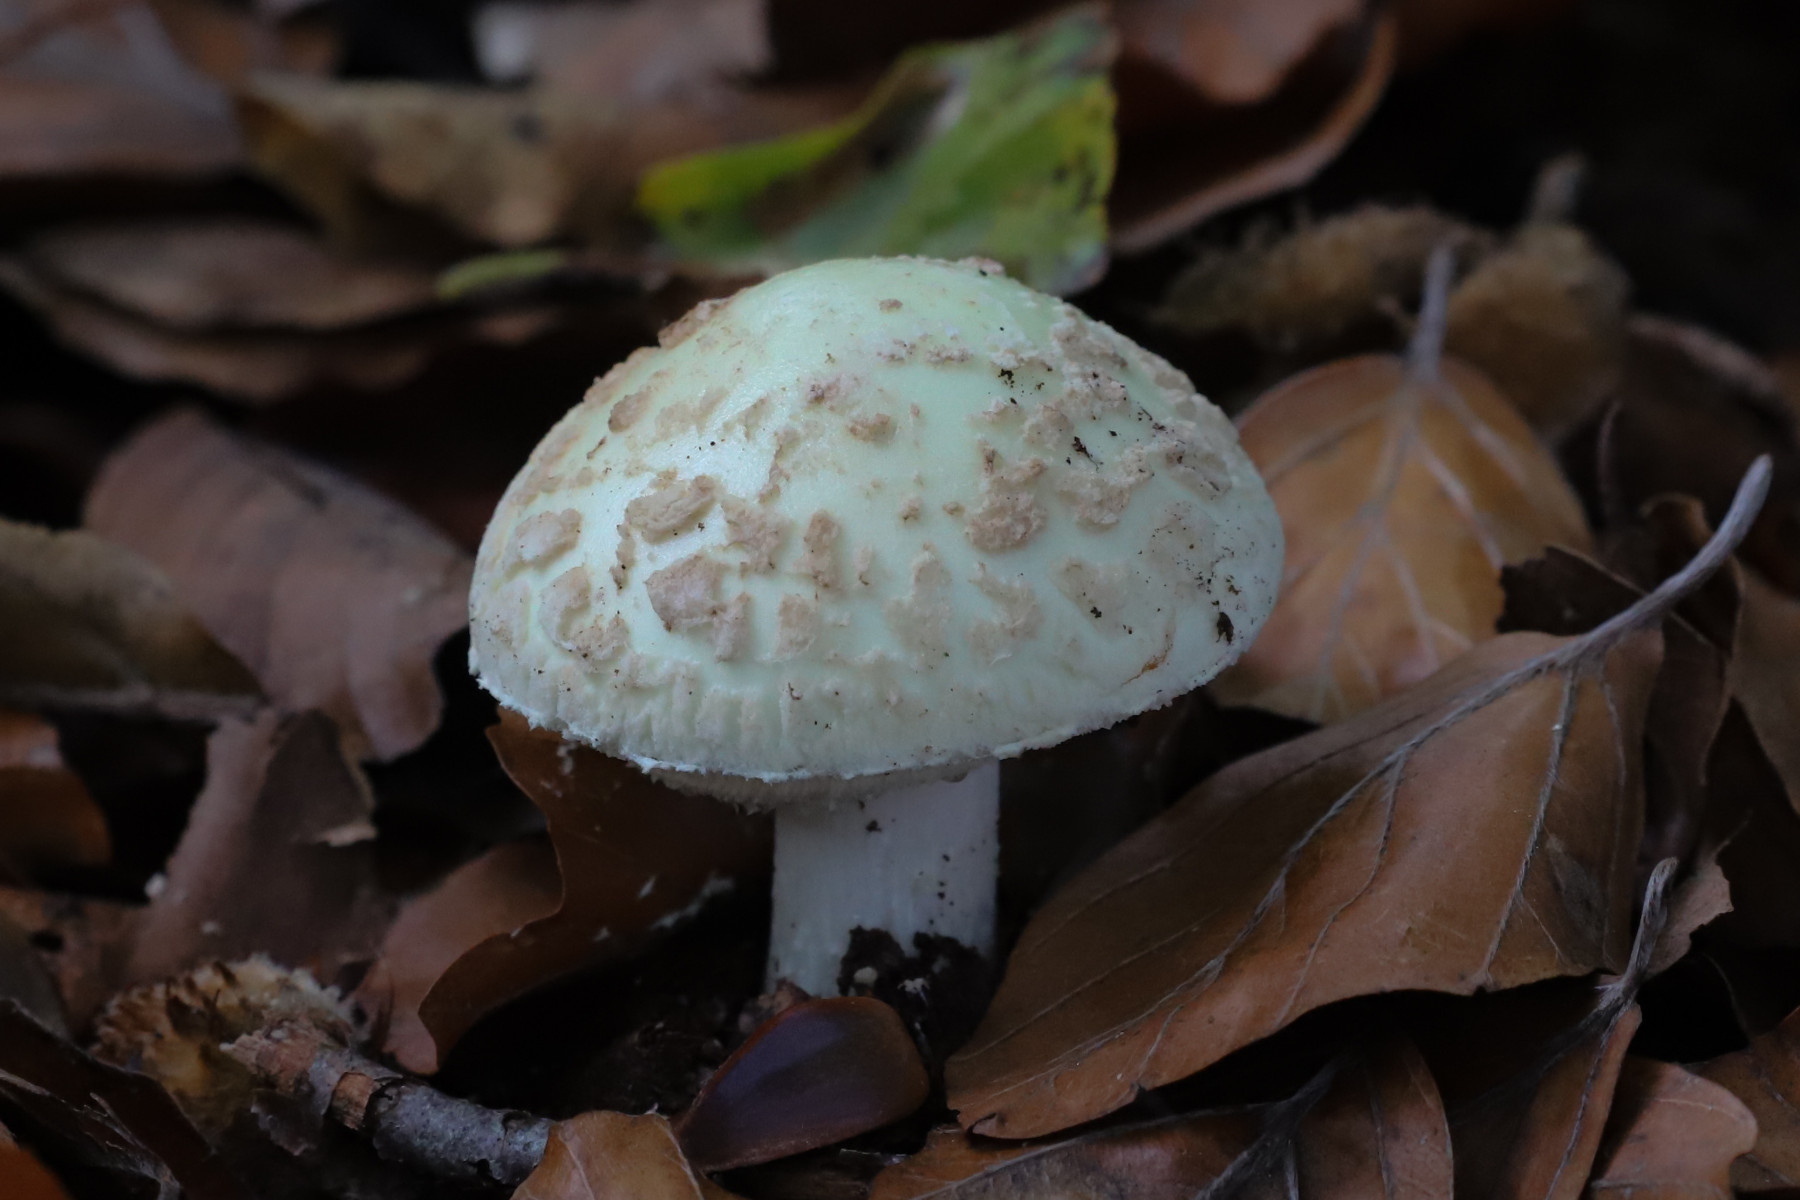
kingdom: Fungi
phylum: Basidiomycota
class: Agaricomycetes
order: Agaricales
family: Amanitaceae
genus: Amanita
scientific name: Amanita citrina
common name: kugleknoldet fluesvamp
